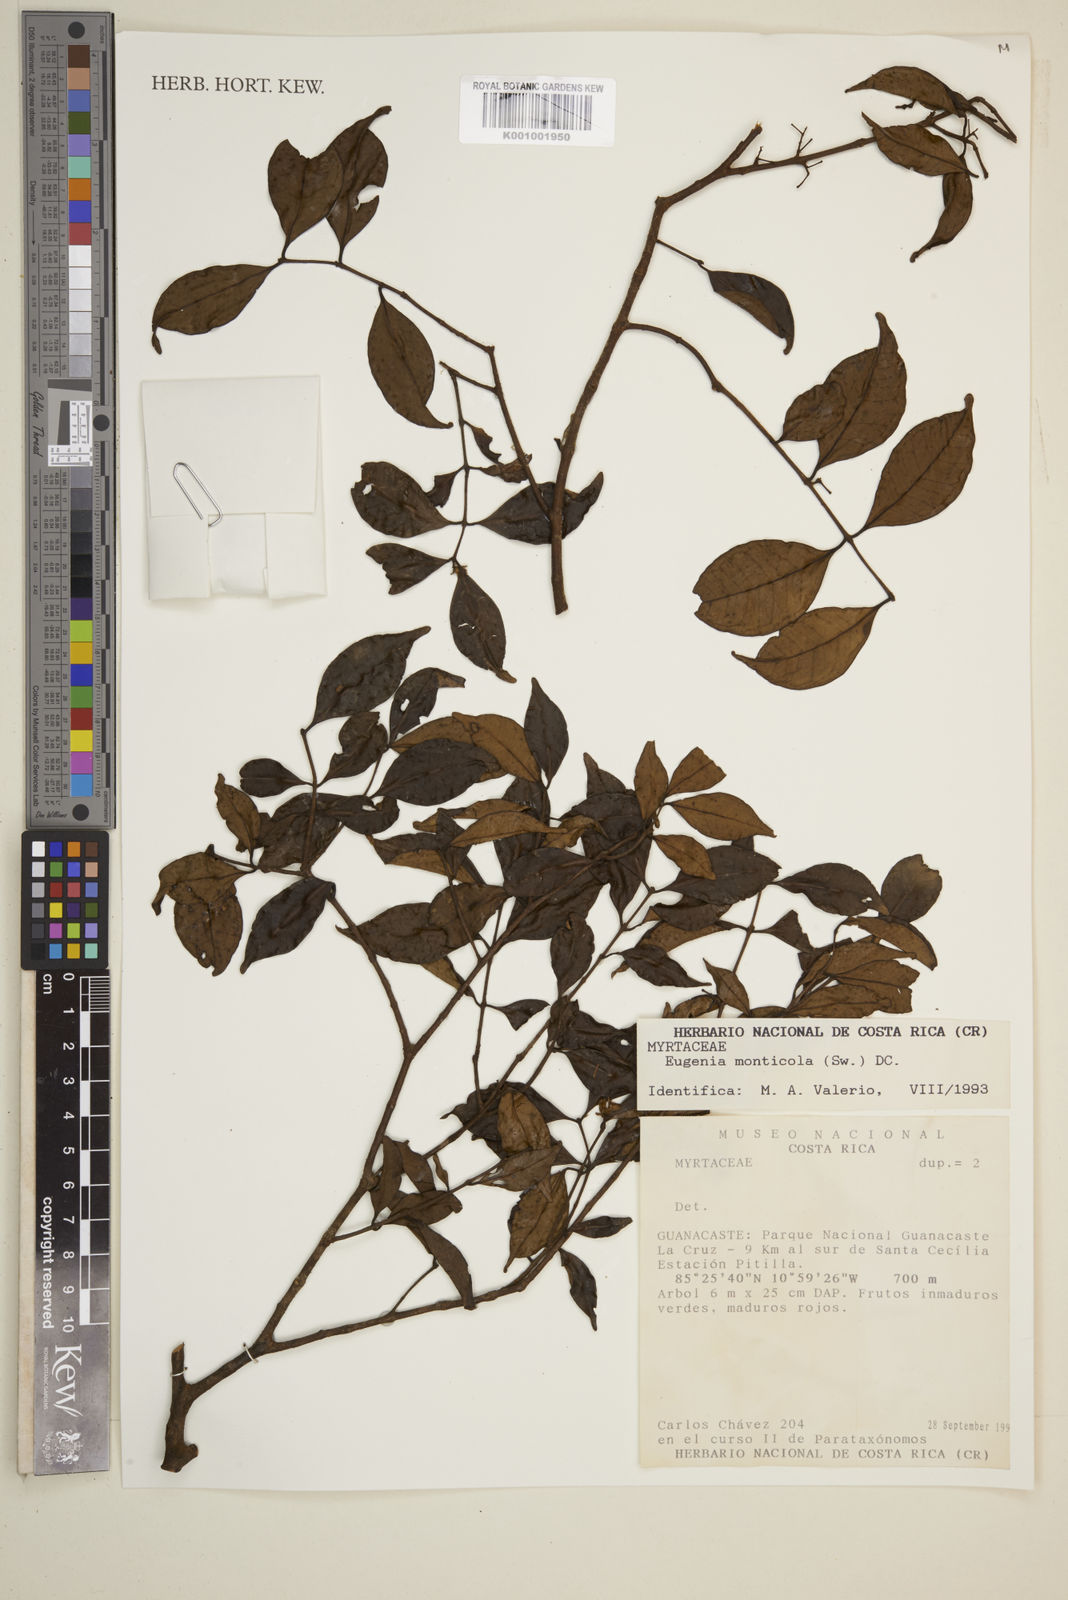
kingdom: Plantae
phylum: Tracheophyta
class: Magnoliopsida
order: Myrtales
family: Myrtaceae
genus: Eugenia
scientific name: Eugenia monticola
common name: Birds berry
